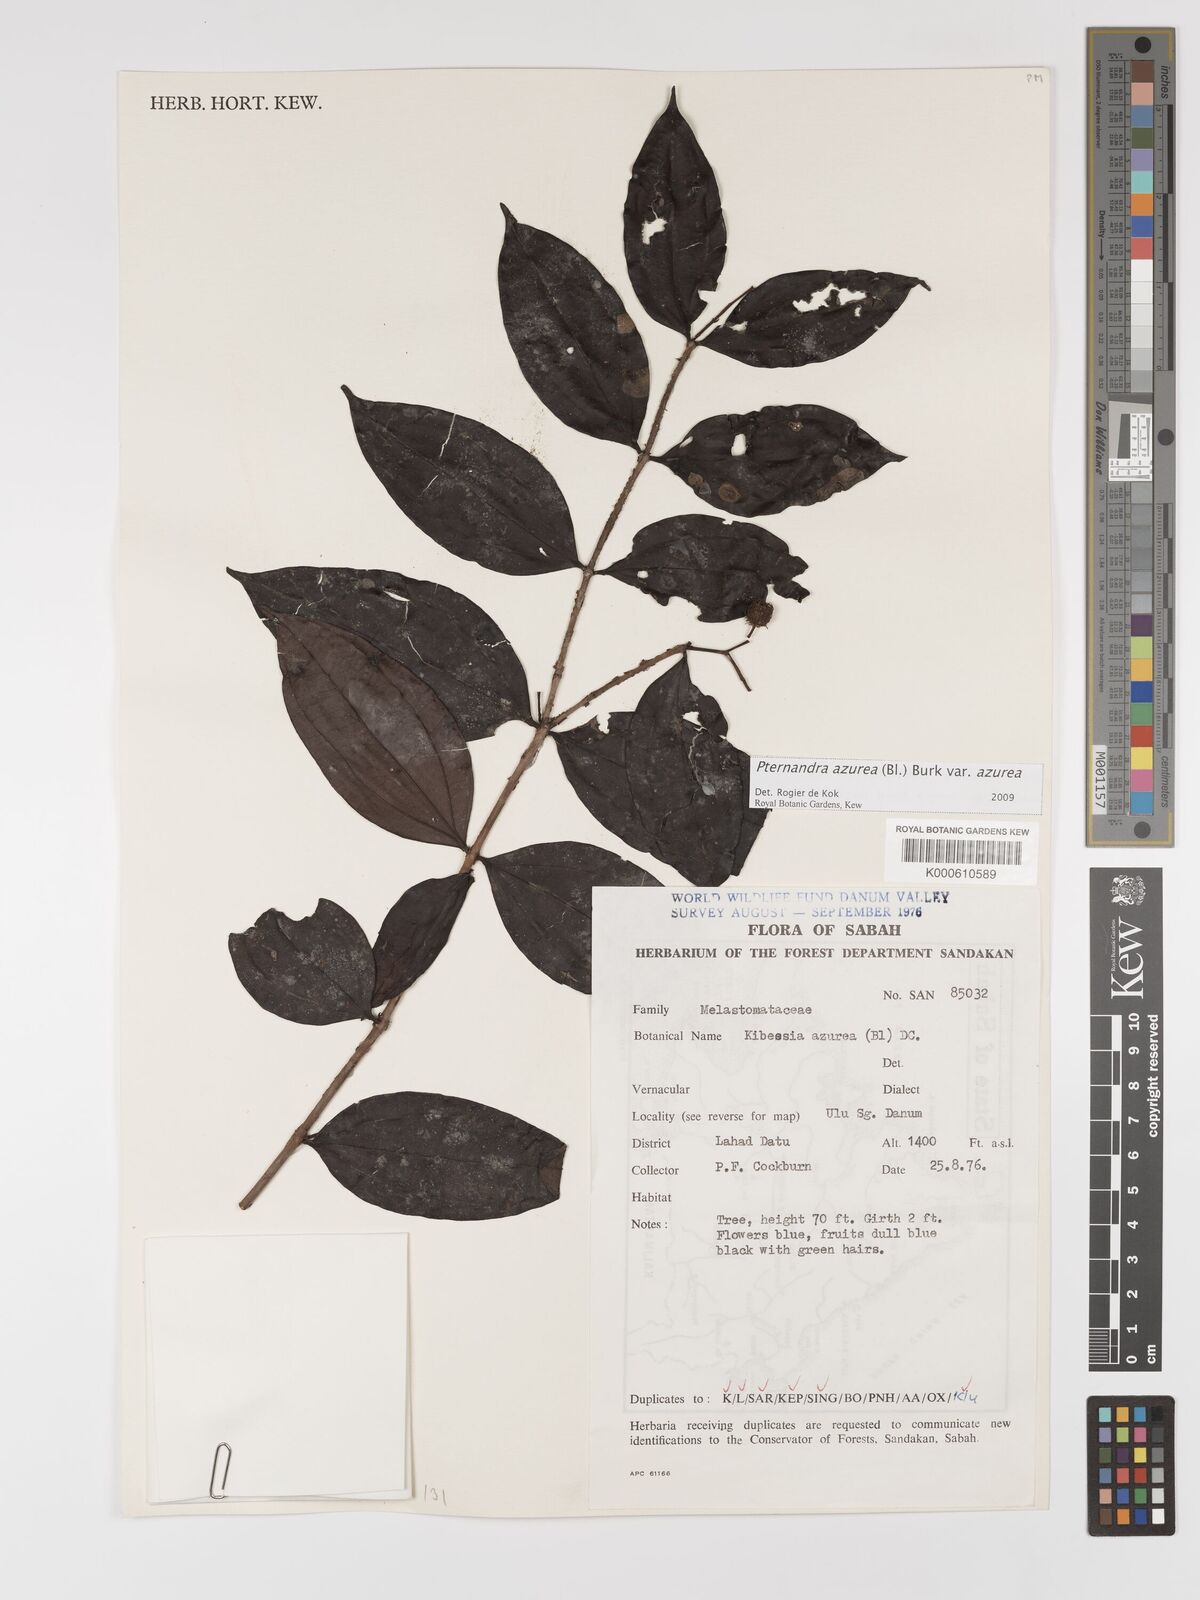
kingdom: Plantae
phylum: Tracheophyta
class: Magnoliopsida
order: Myrtales
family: Melastomataceae
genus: Pternandra
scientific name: Pternandra azurea
